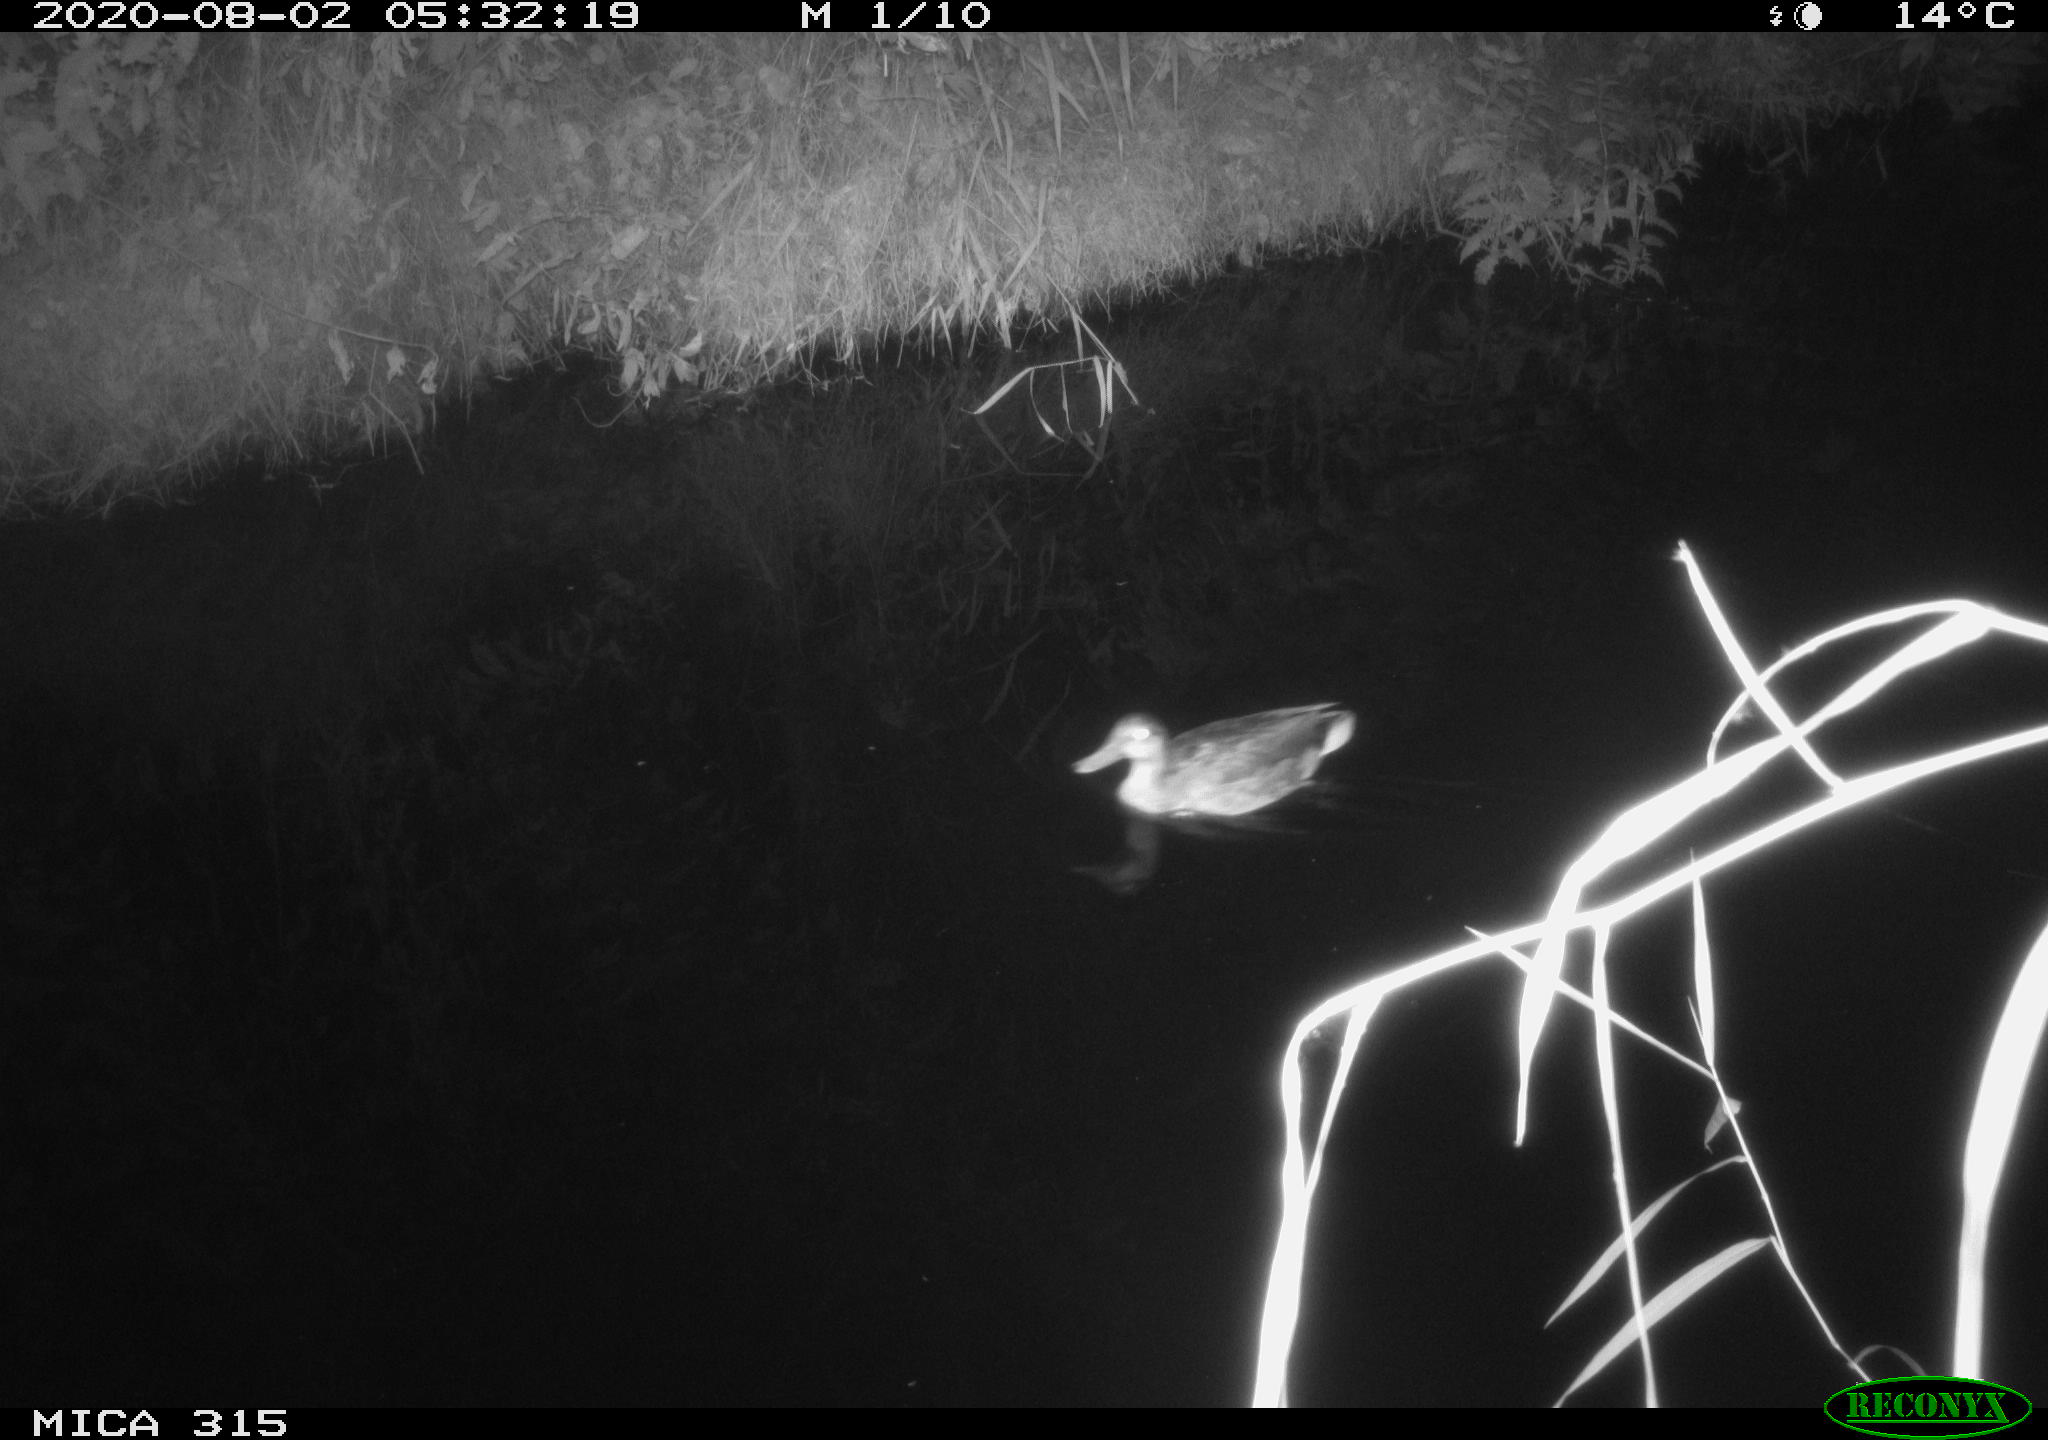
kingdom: Animalia
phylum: Chordata
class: Aves
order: Anseriformes
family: Anatidae
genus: Anas
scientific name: Anas platyrhynchos
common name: Mallard
